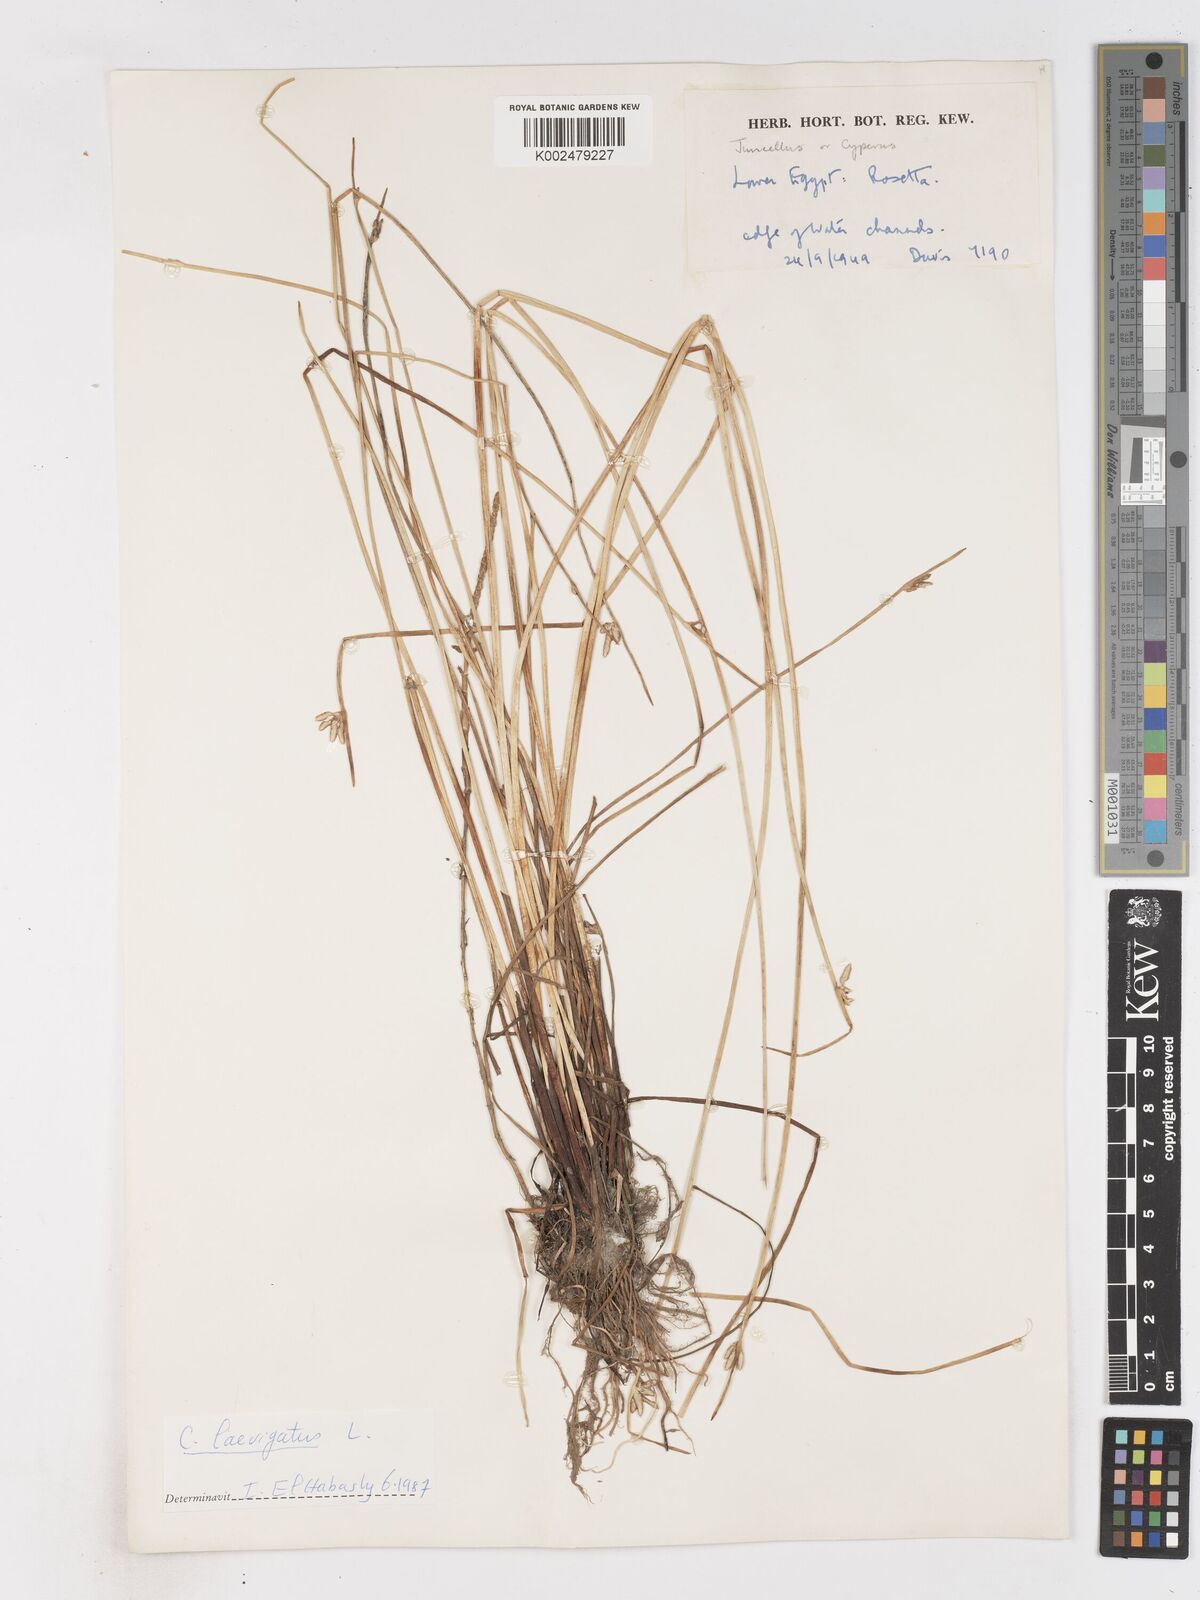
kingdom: Plantae
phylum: Tracheophyta
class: Liliopsida
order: Poales
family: Cyperaceae
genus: Cyperus
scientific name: Cyperus laevigatus
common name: Smooth flat sedge
